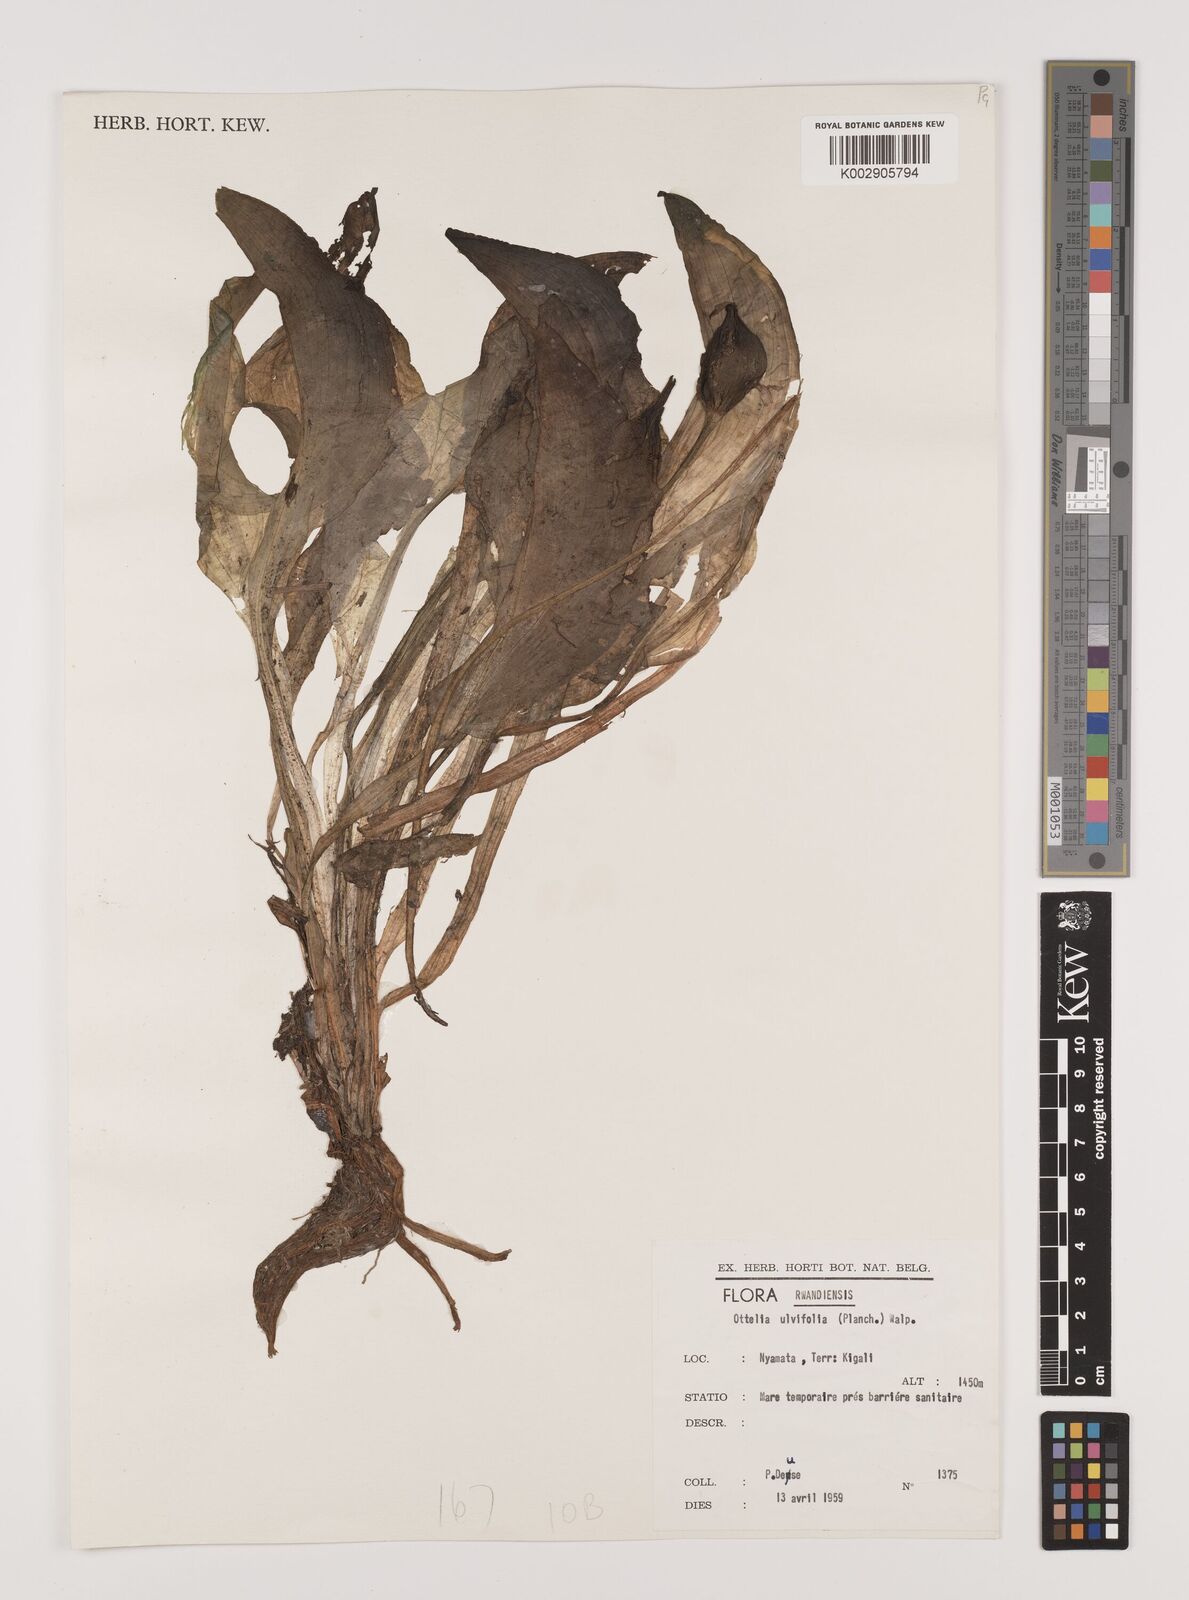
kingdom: Plantae
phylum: Tracheophyta
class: Liliopsida
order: Alismatales
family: Hydrocharitaceae
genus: Ottelia
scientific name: Ottelia ulvifolia
